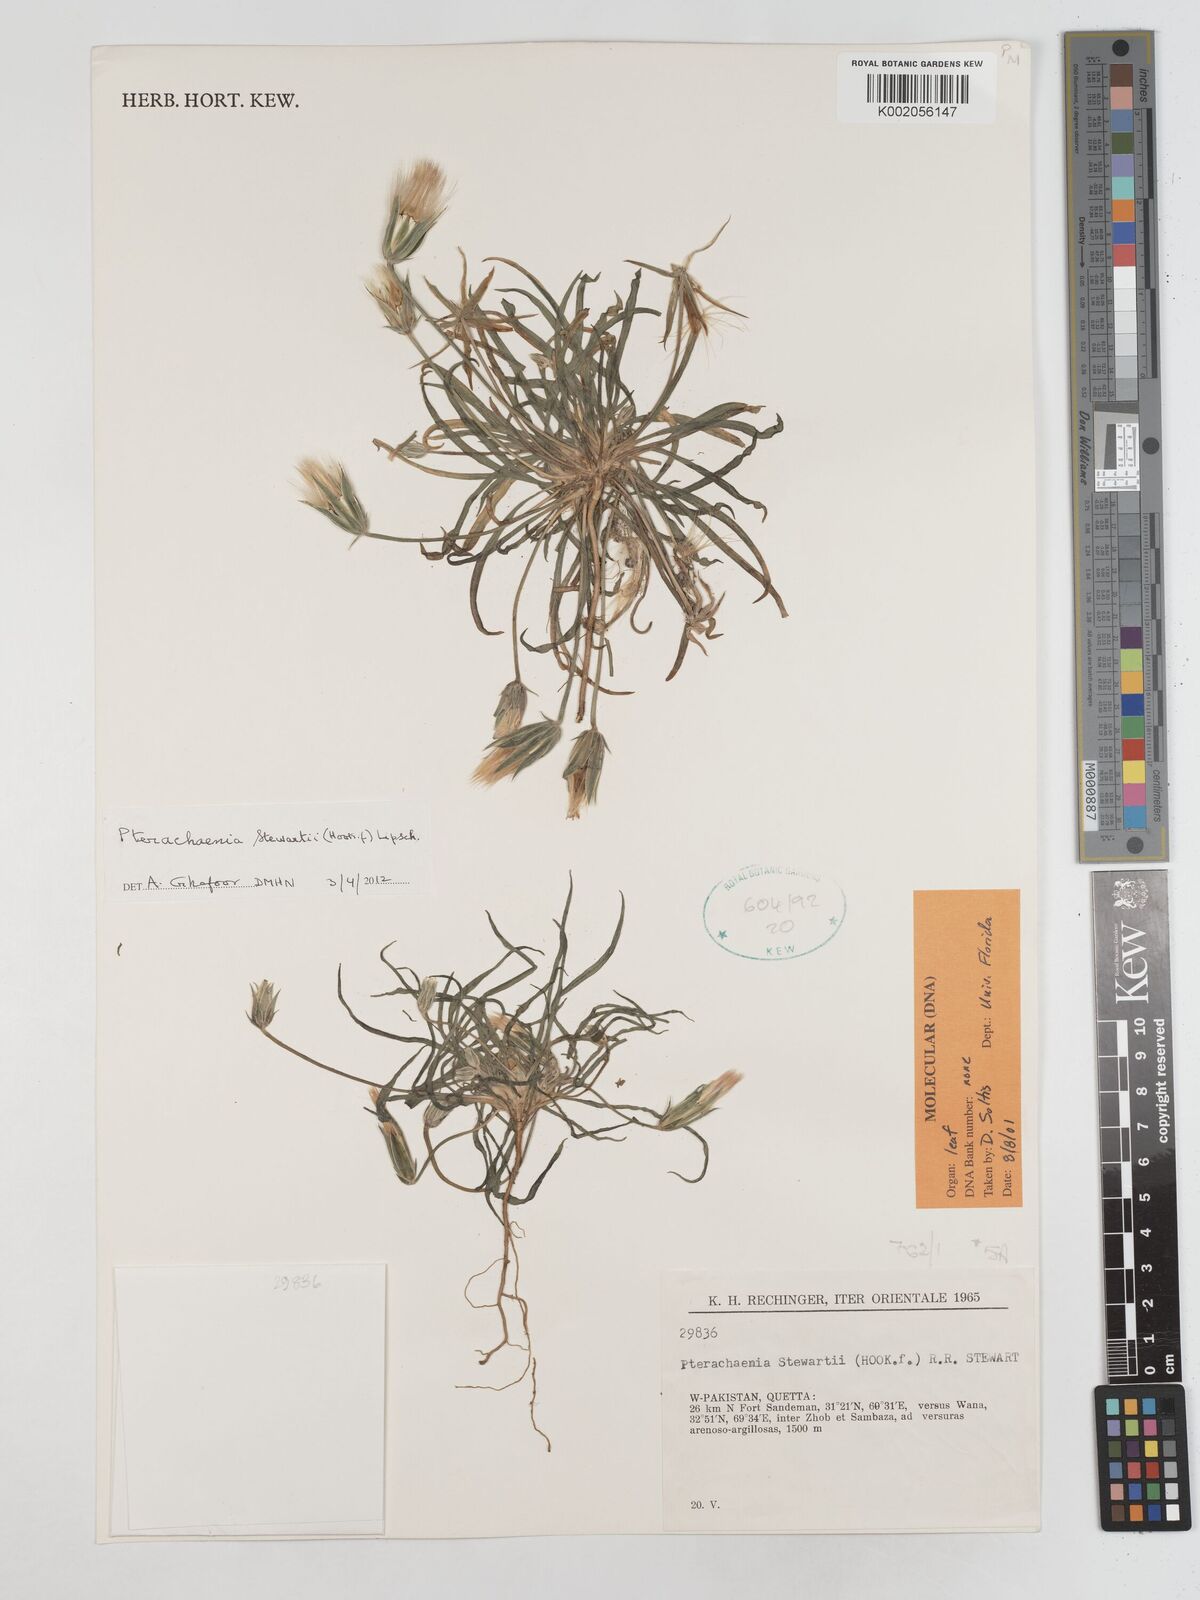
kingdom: Plantae
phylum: Tracheophyta
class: Magnoliopsida
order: Asterales
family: Asteraceae
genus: Pterachaenia
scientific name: Pterachaenia stewartii
